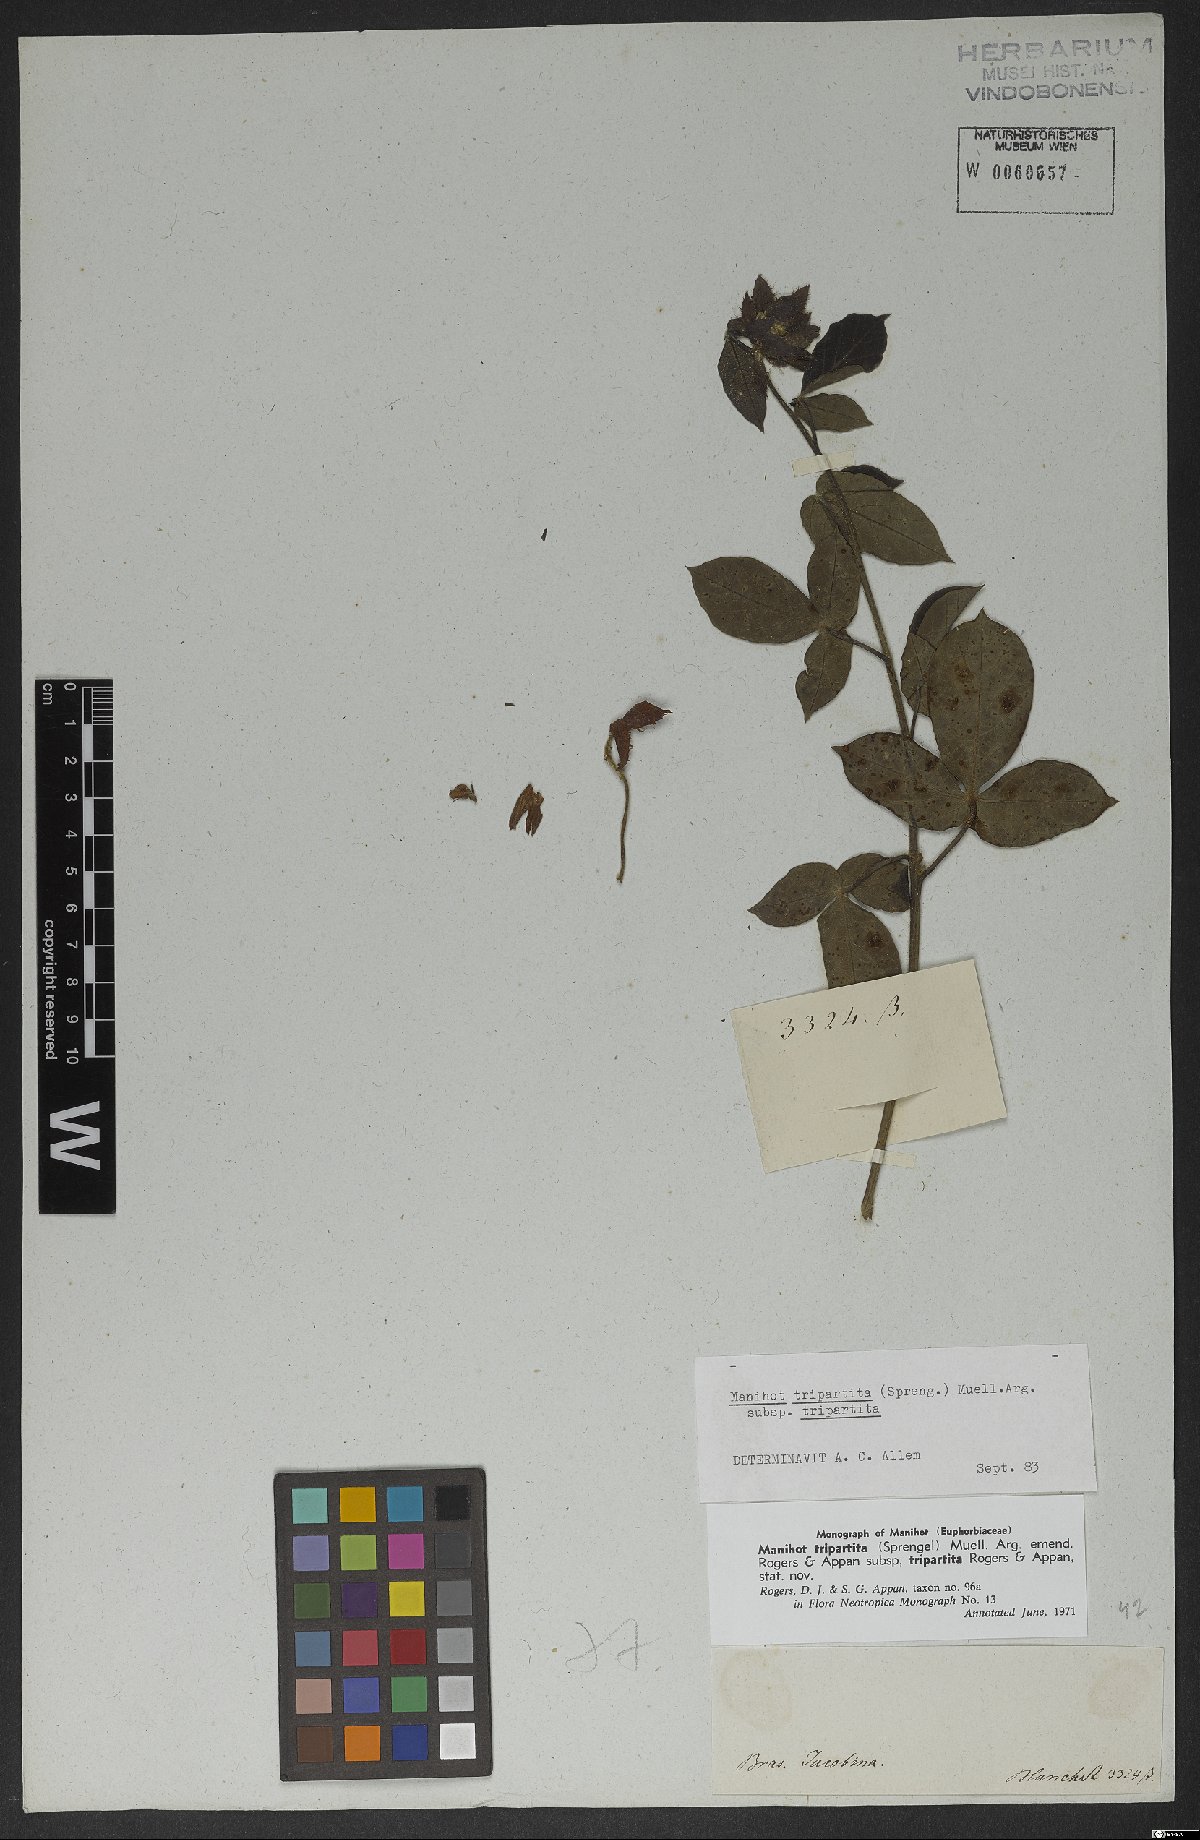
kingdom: Plantae
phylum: Tracheophyta
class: Magnoliopsida
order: Malpighiales
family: Euphorbiaceae
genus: Manihot
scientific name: Manihot tripartita
